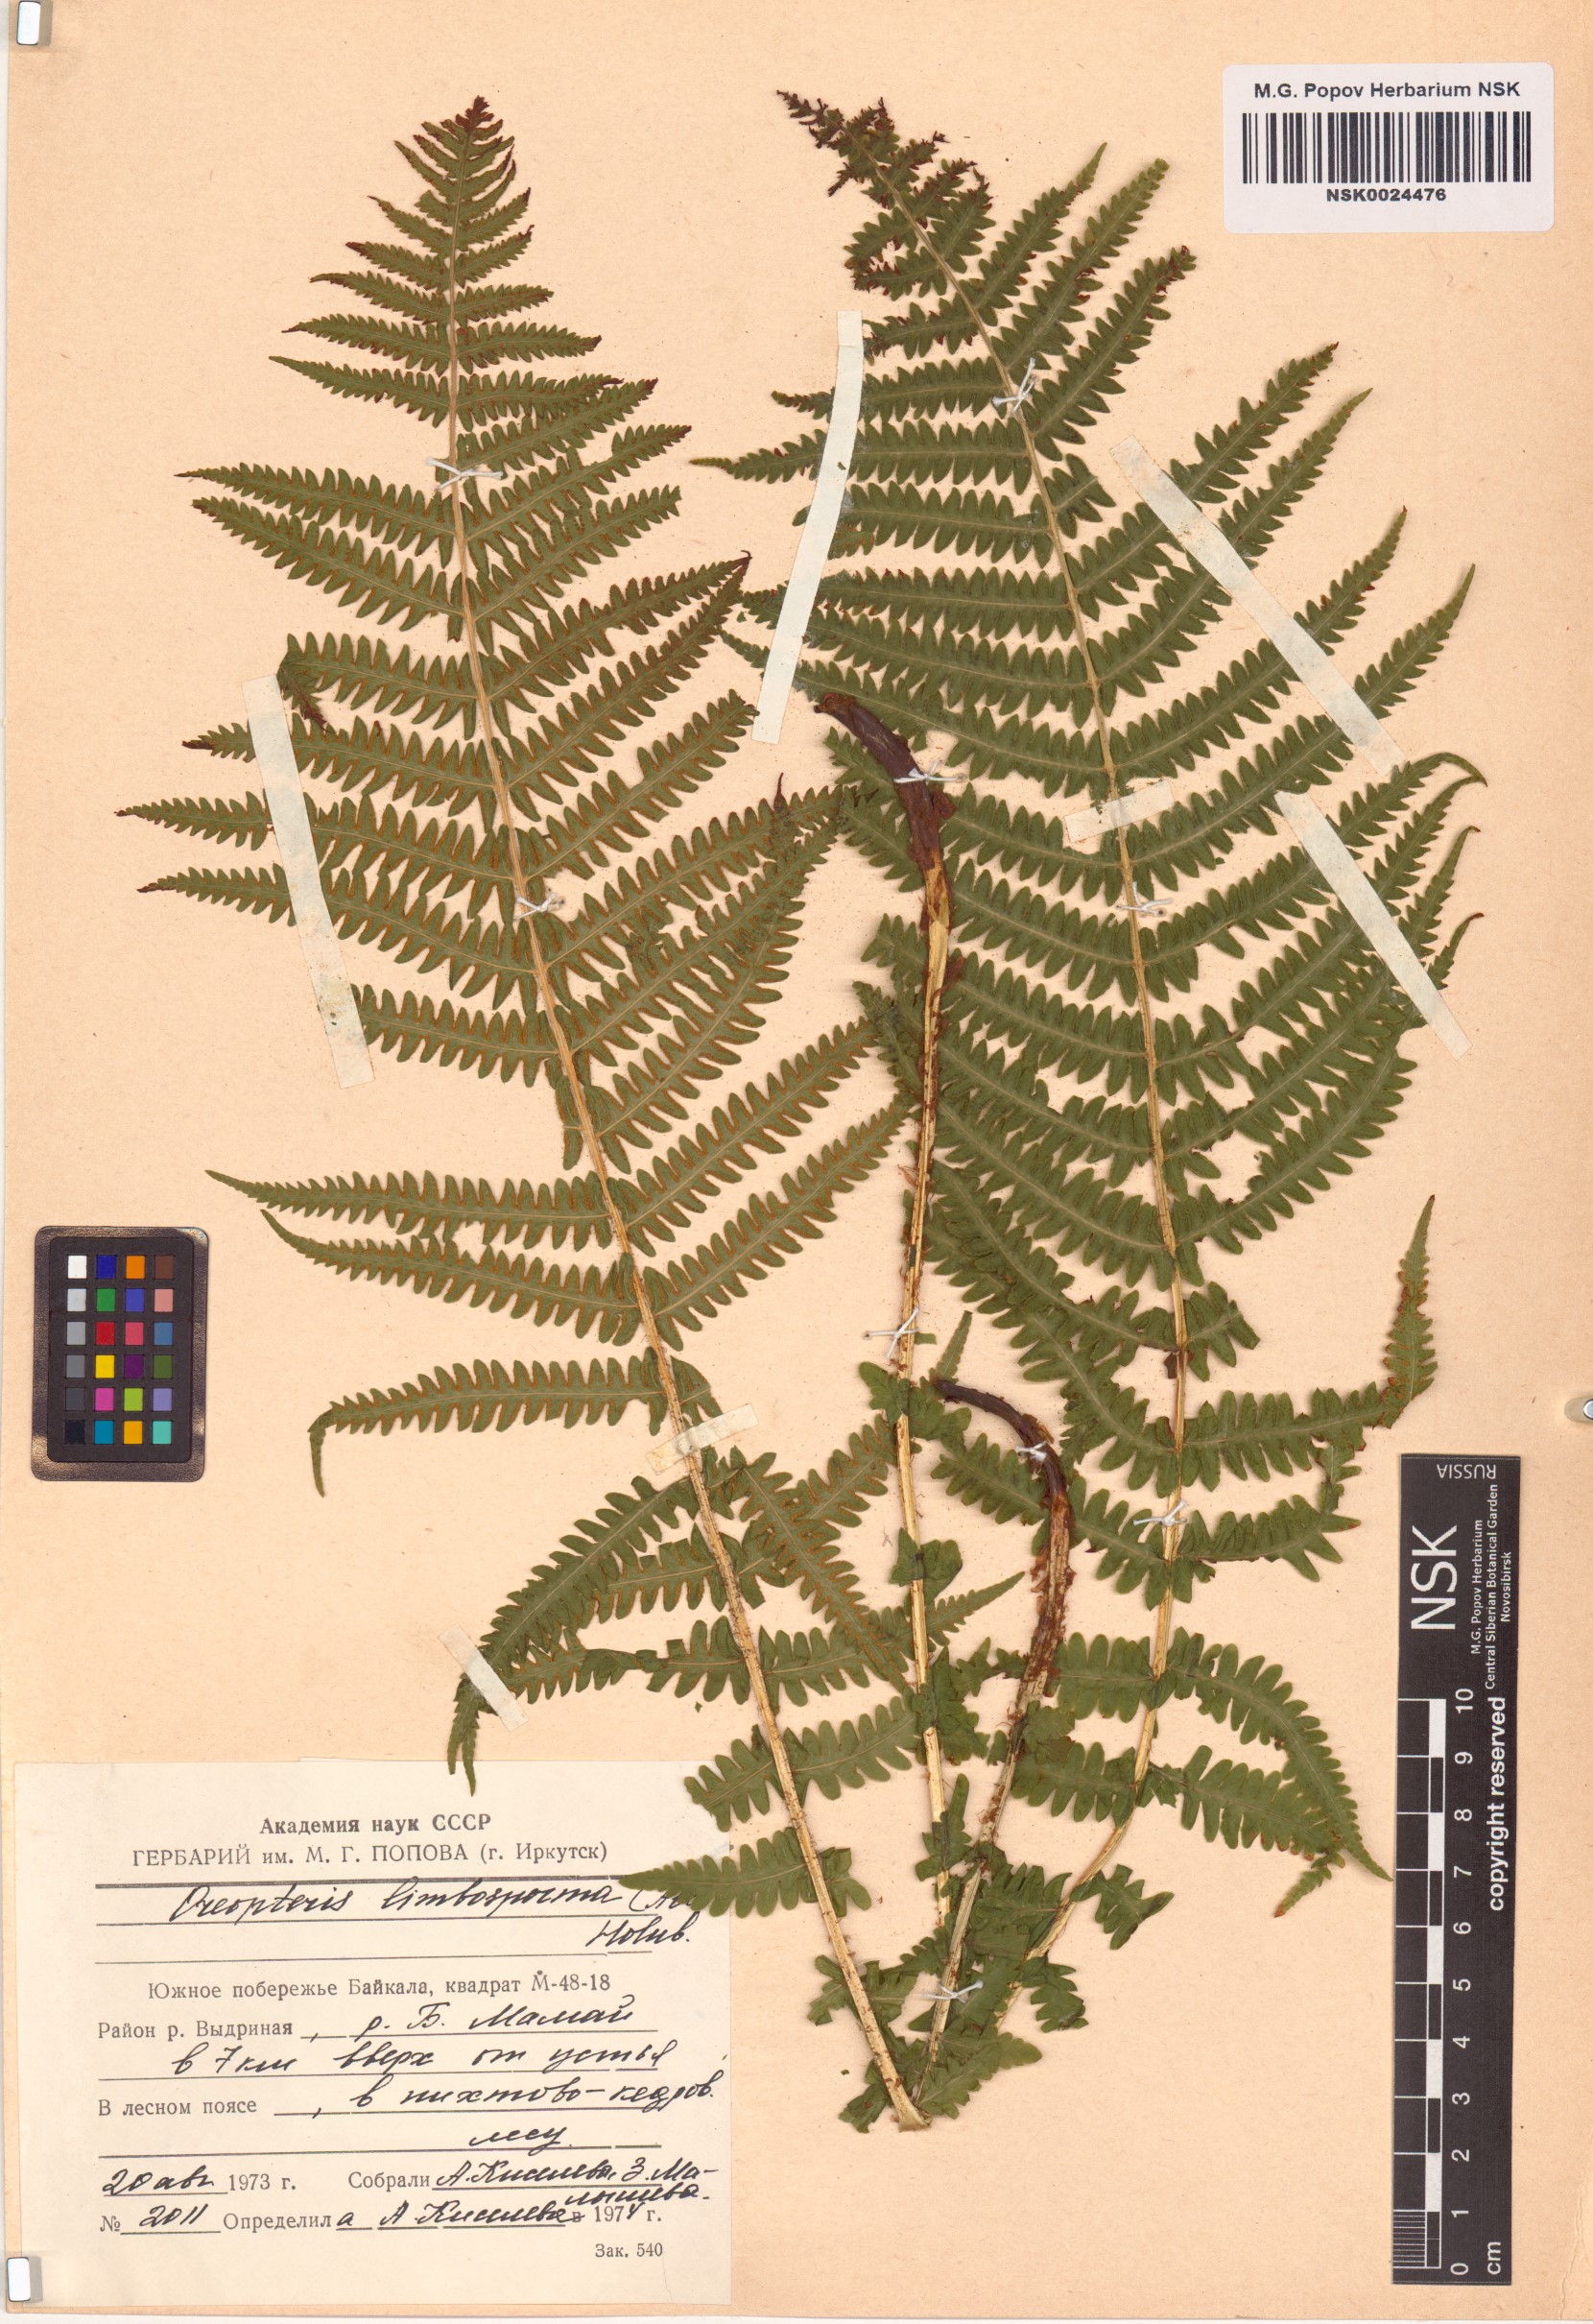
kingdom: Plantae
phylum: Tracheophyta
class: Polypodiopsida
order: Polypodiales
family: Thelypteridaceae
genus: Oreopteris
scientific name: Oreopteris limbosperma
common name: Lemon-scented fern
